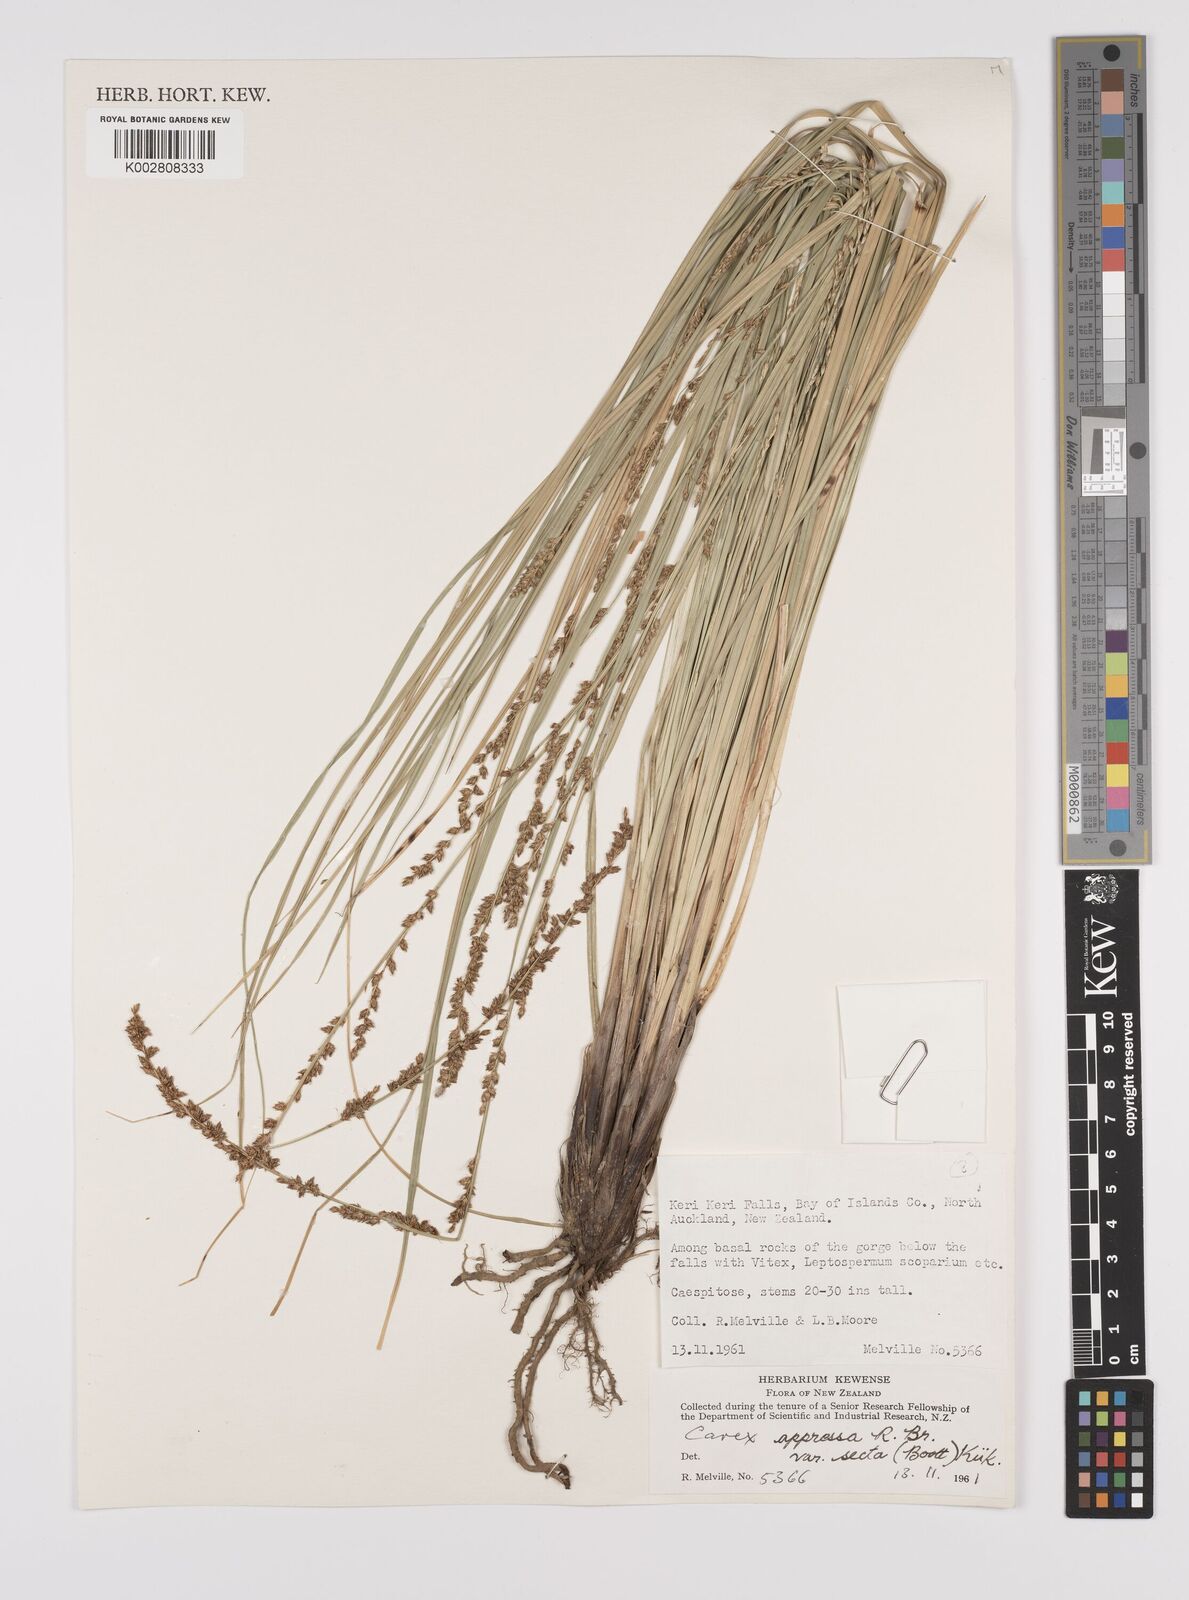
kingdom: Plantae
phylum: Tracheophyta
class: Liliopsida
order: Poales
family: Cyperaceae
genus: Carex
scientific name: Carex appressa
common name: Tussock sedge
